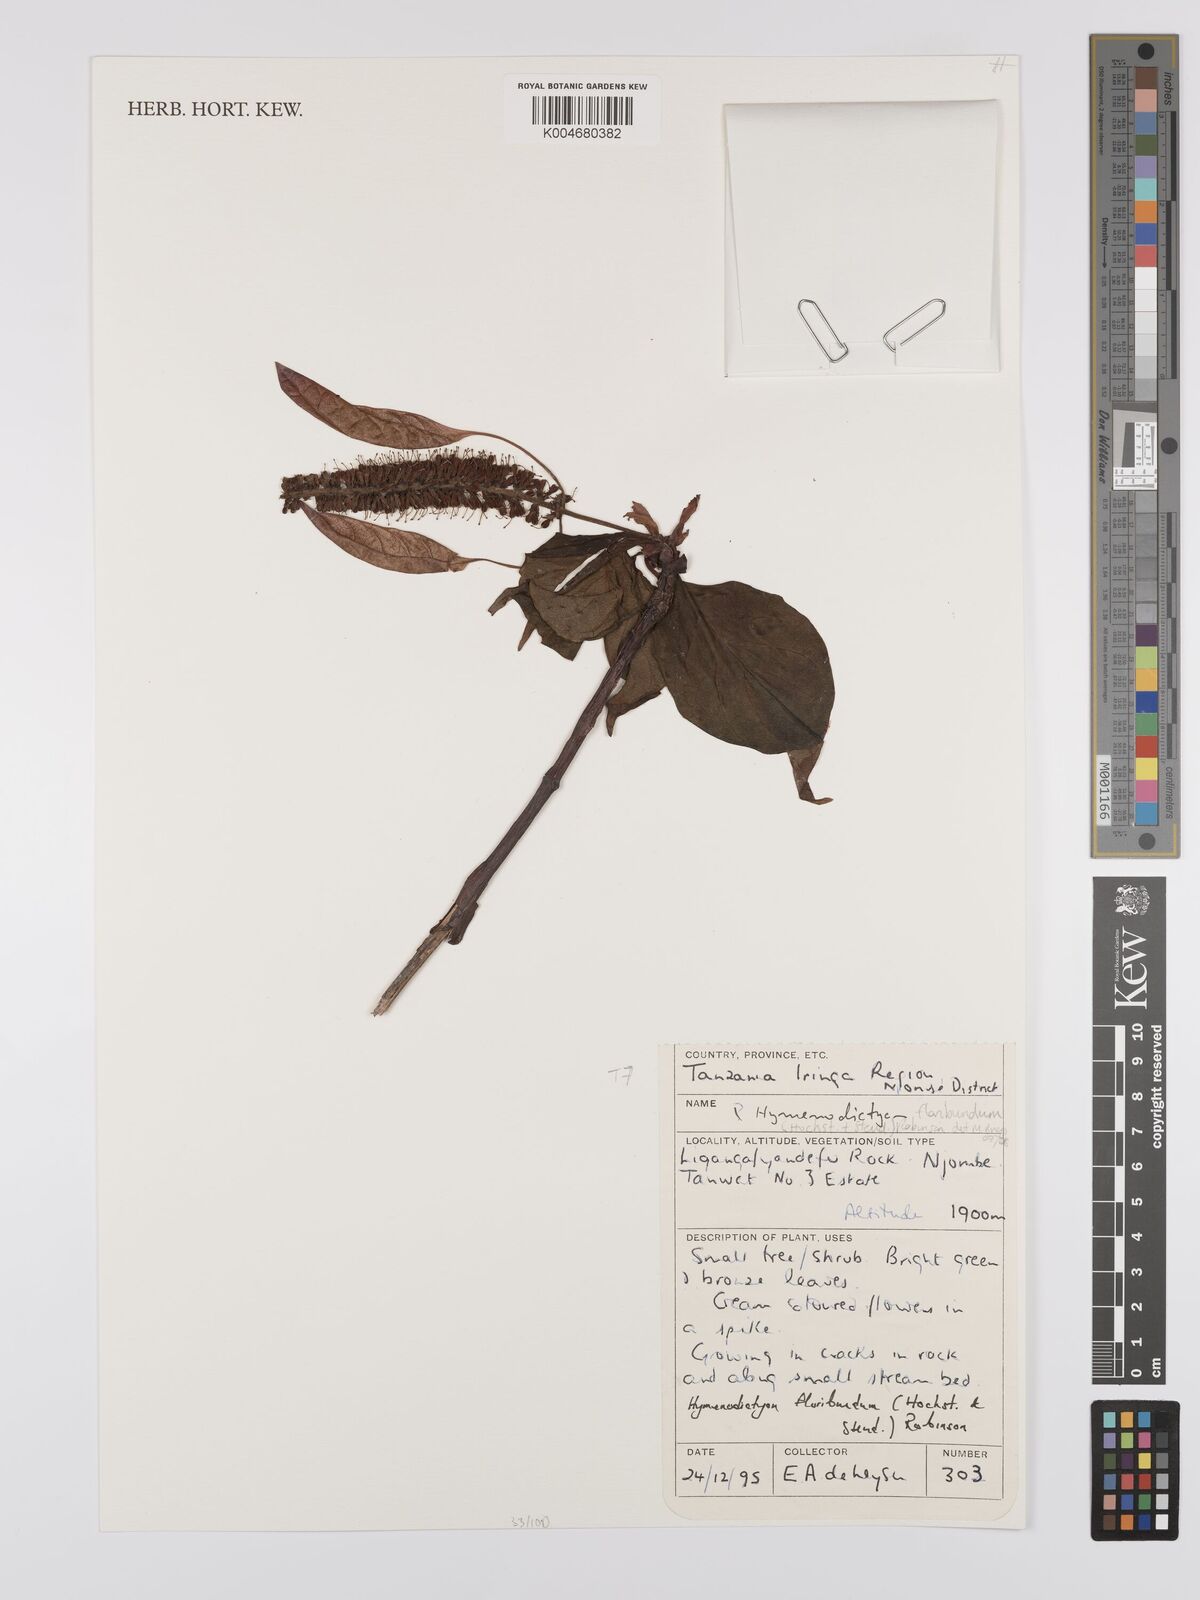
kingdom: Plantae
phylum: Tracheophyta
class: Magnoliopsida
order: Gentianales
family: Rubiaceae
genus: Hymenodictyon
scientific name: Hymenodictyon floribundum
